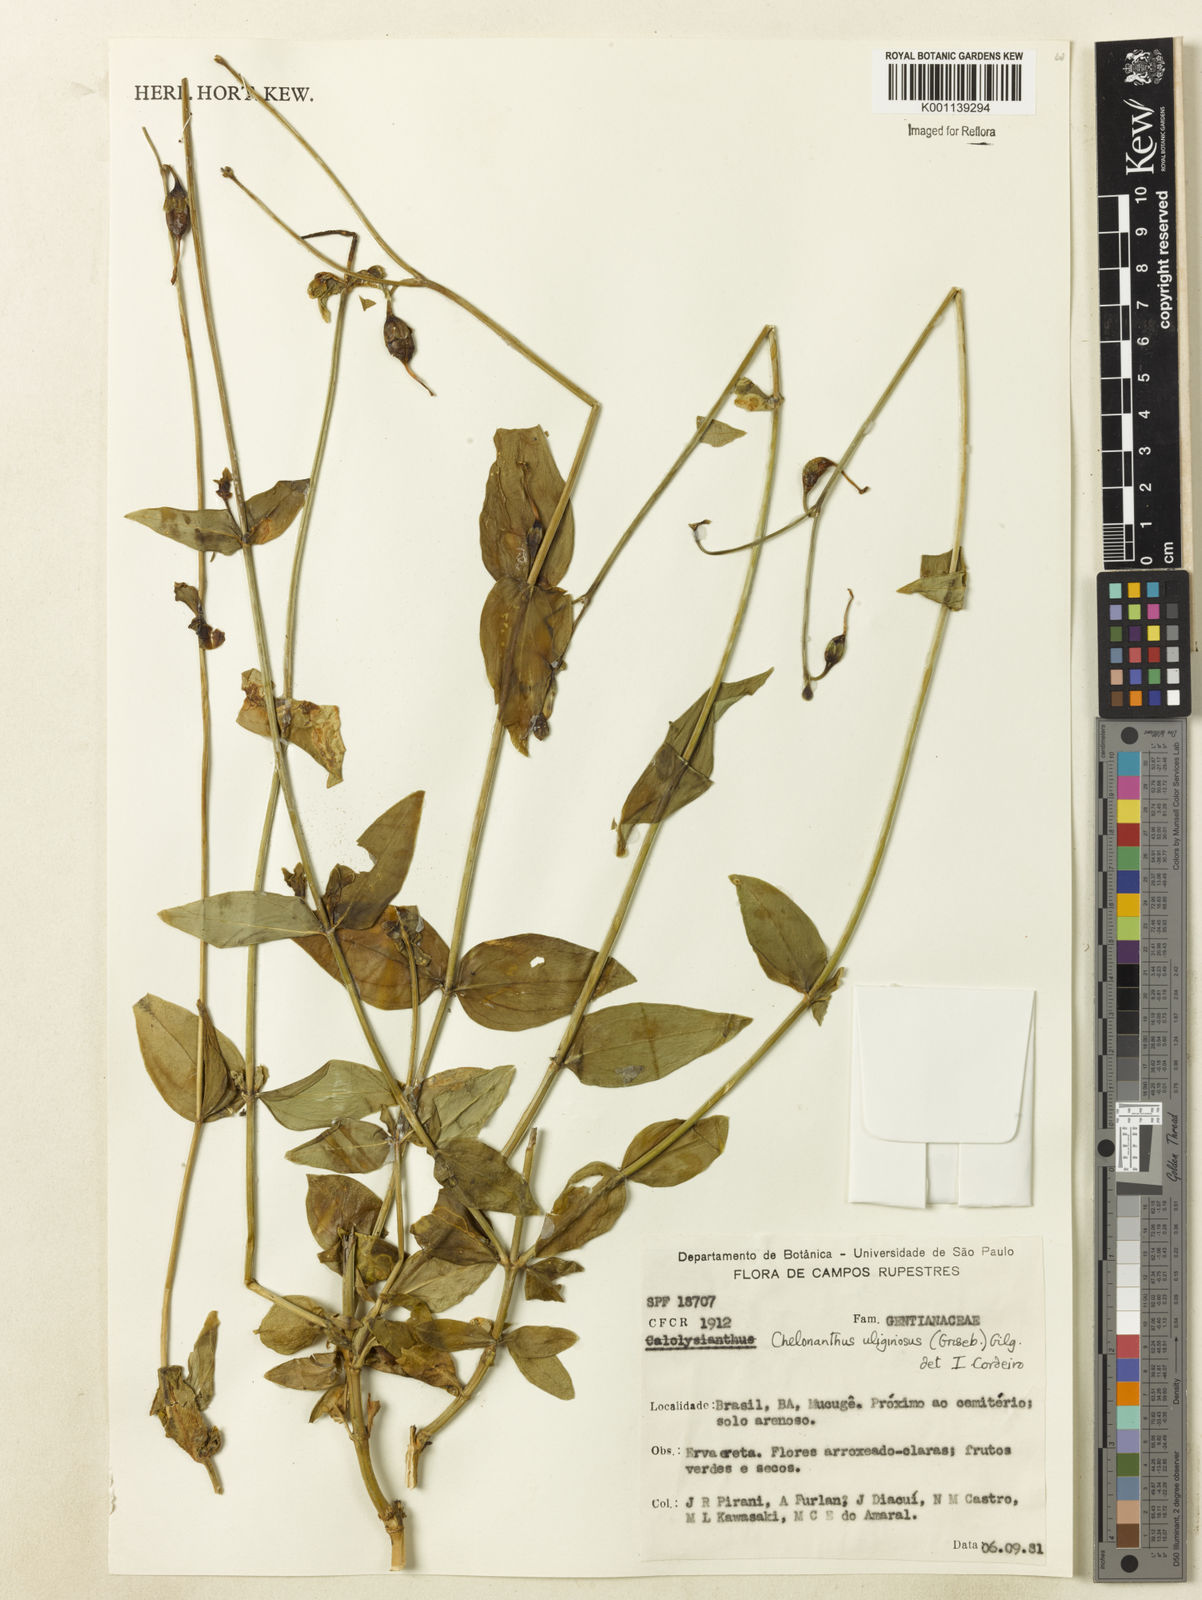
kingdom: Plantae
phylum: Tracheophyta
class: Magnoliopsida
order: Gentianales
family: Gentianaceae
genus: Chelonanthus
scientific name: Chelonanthus purpurascens
